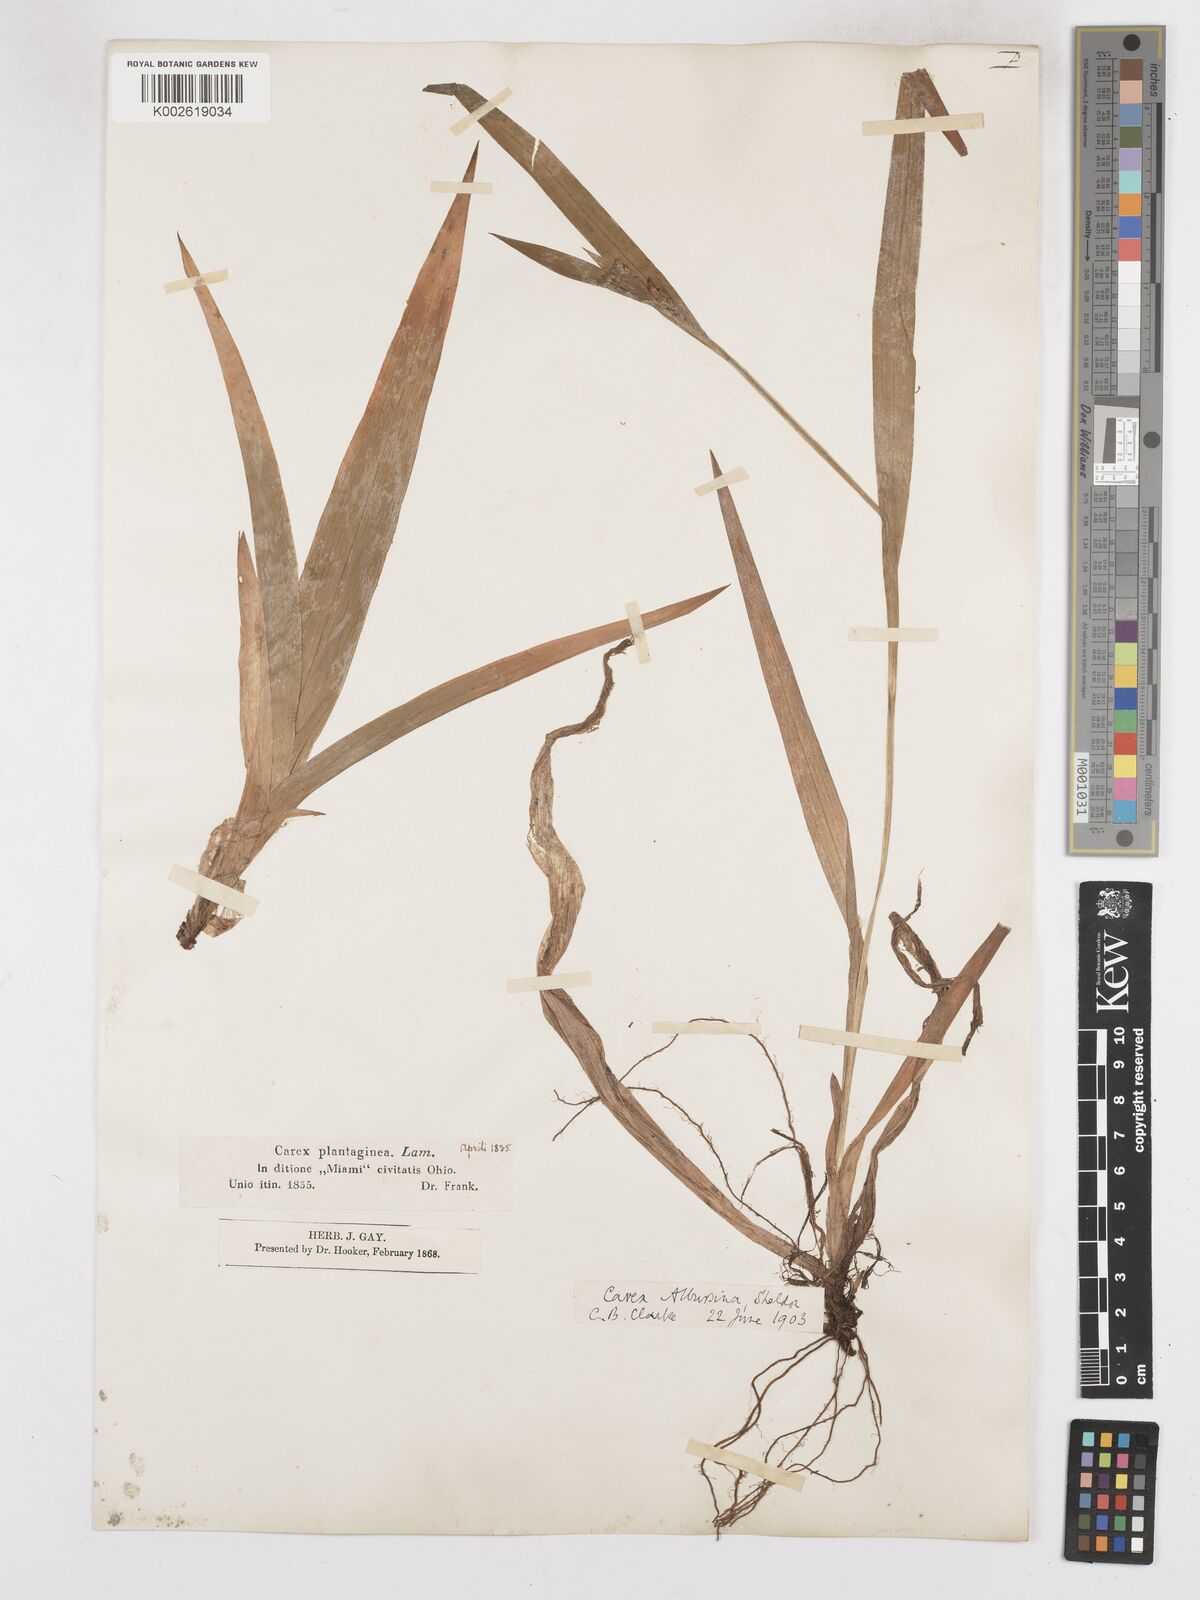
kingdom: Plantae
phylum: Tracheophyta
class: Liliopsida
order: Poales
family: Cyperaceae
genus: Carex
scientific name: Carex albursina
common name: Blunt-scale wood sedge
